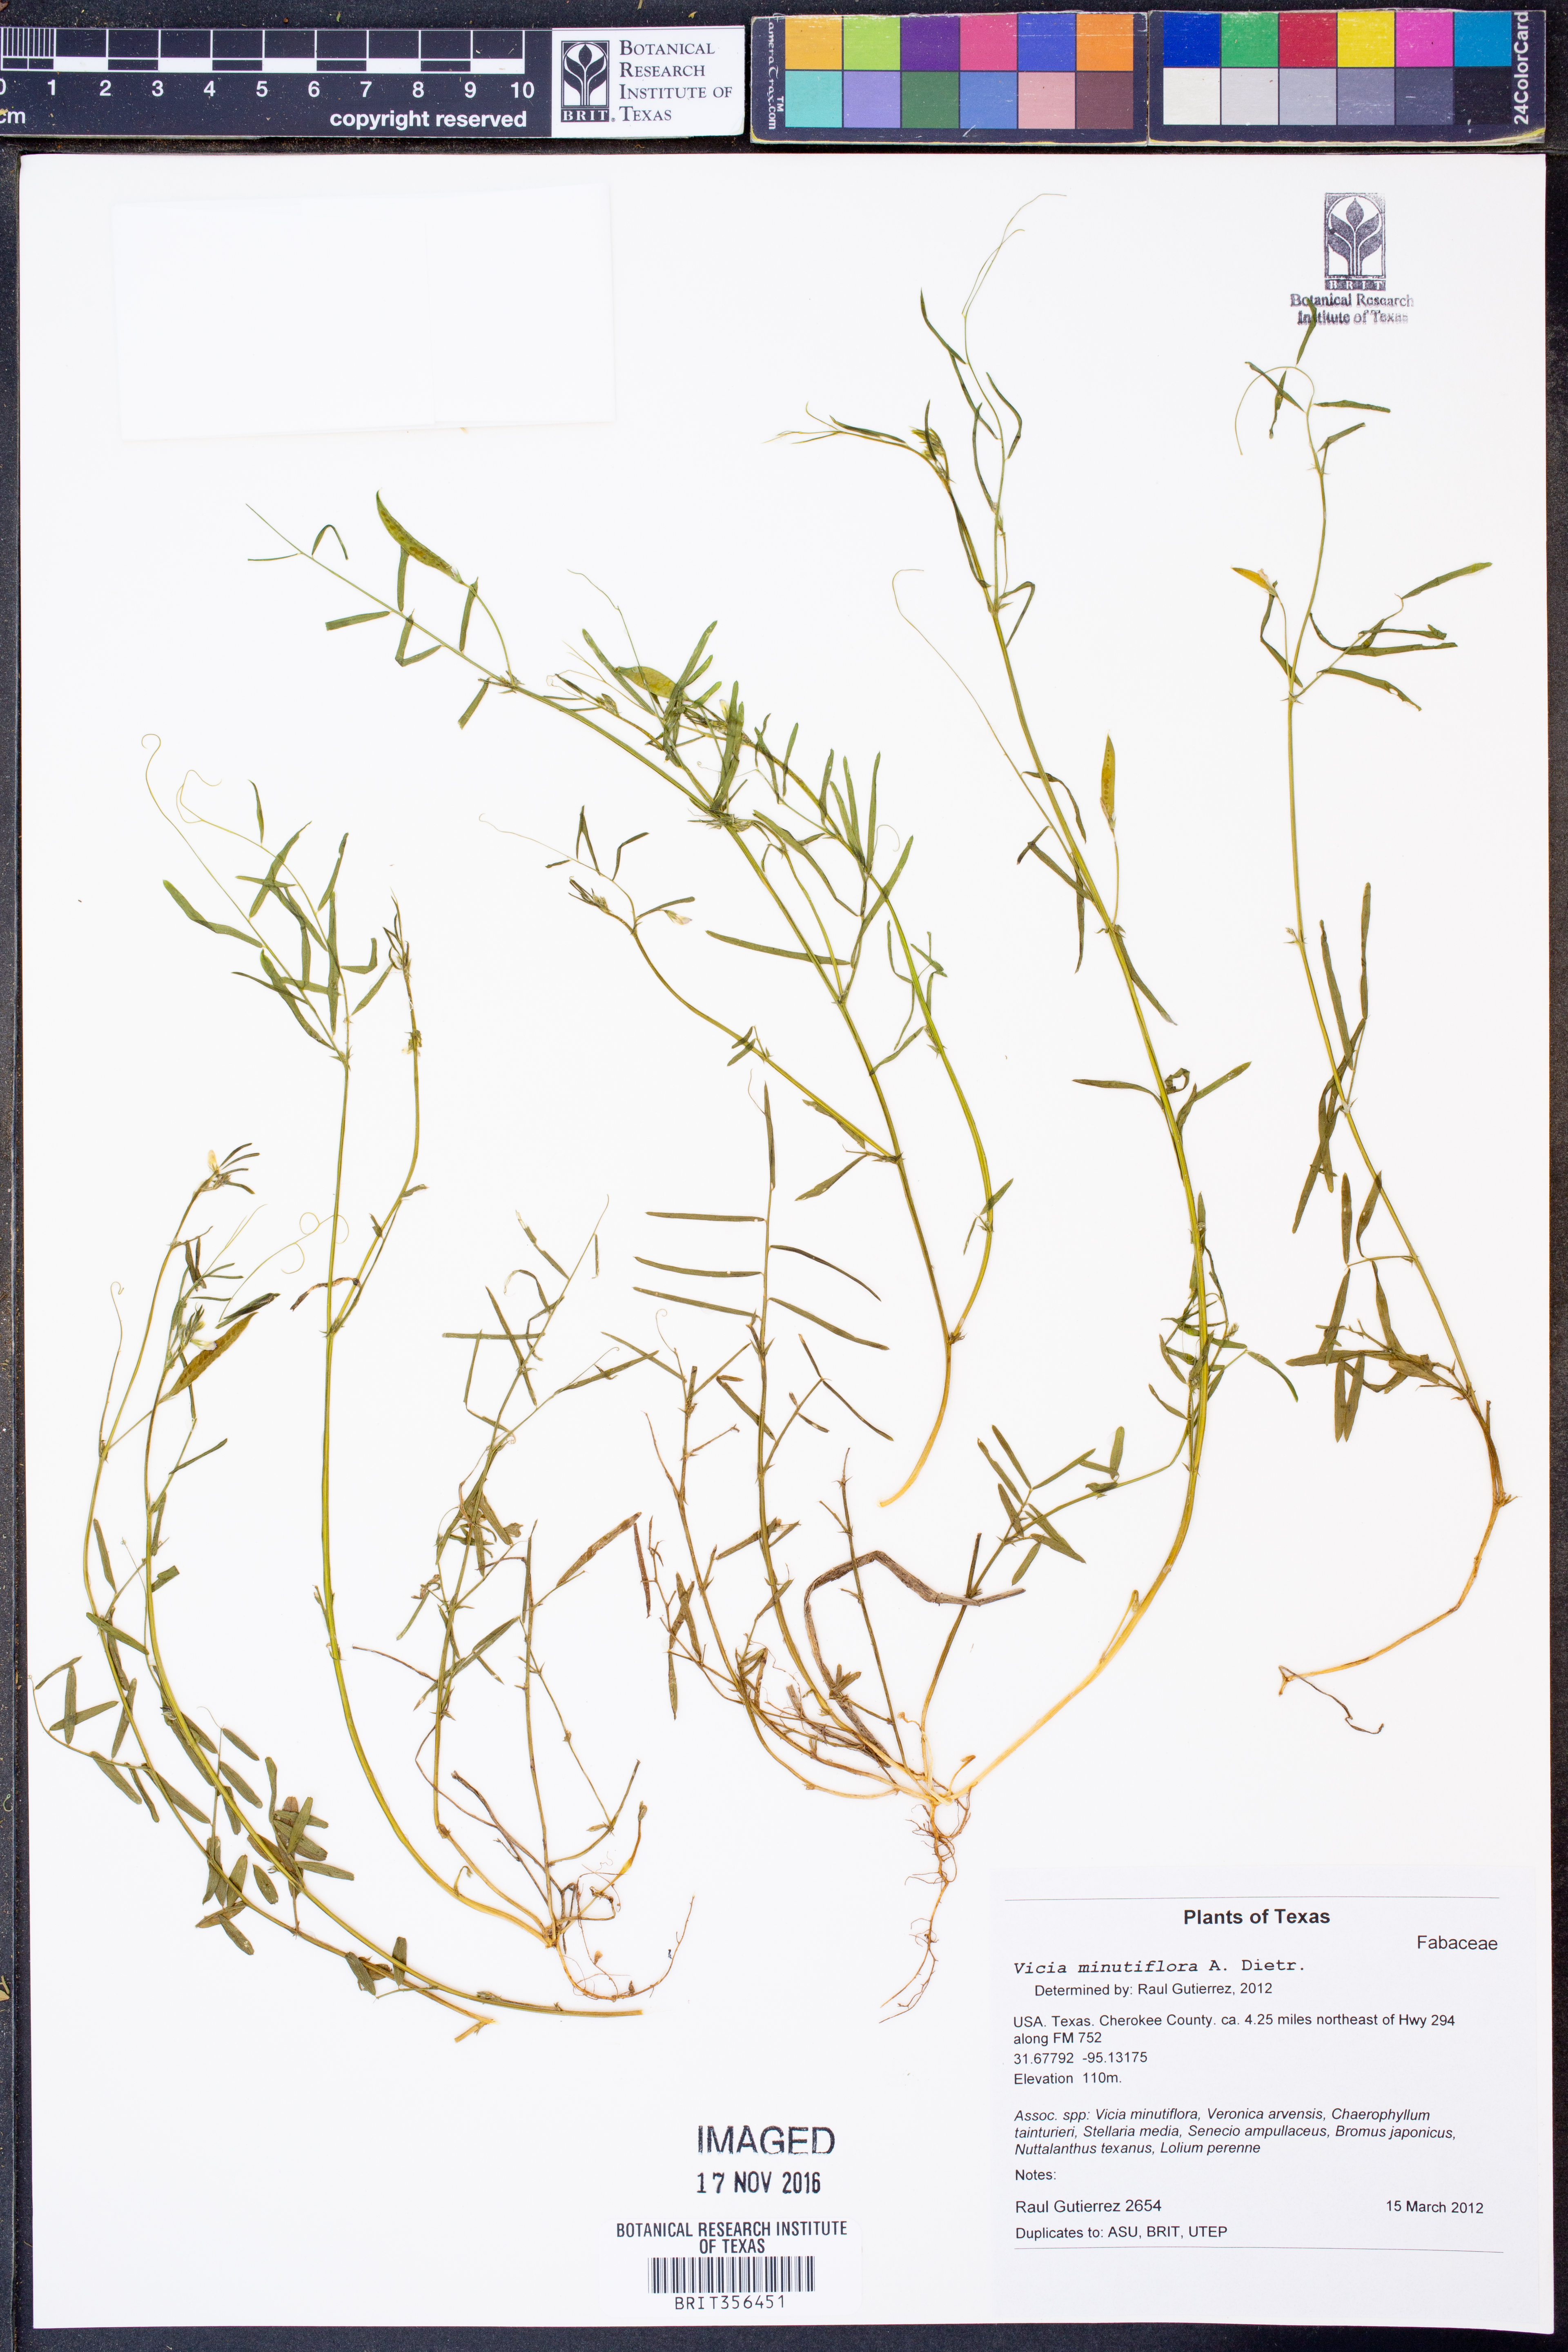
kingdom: Plantae
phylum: Tracheophyta
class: Magnoliopsida
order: Fabales
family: Fabaceae
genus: Vicia
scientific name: Vicia minutiflora
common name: Pygmy-flower vetch
